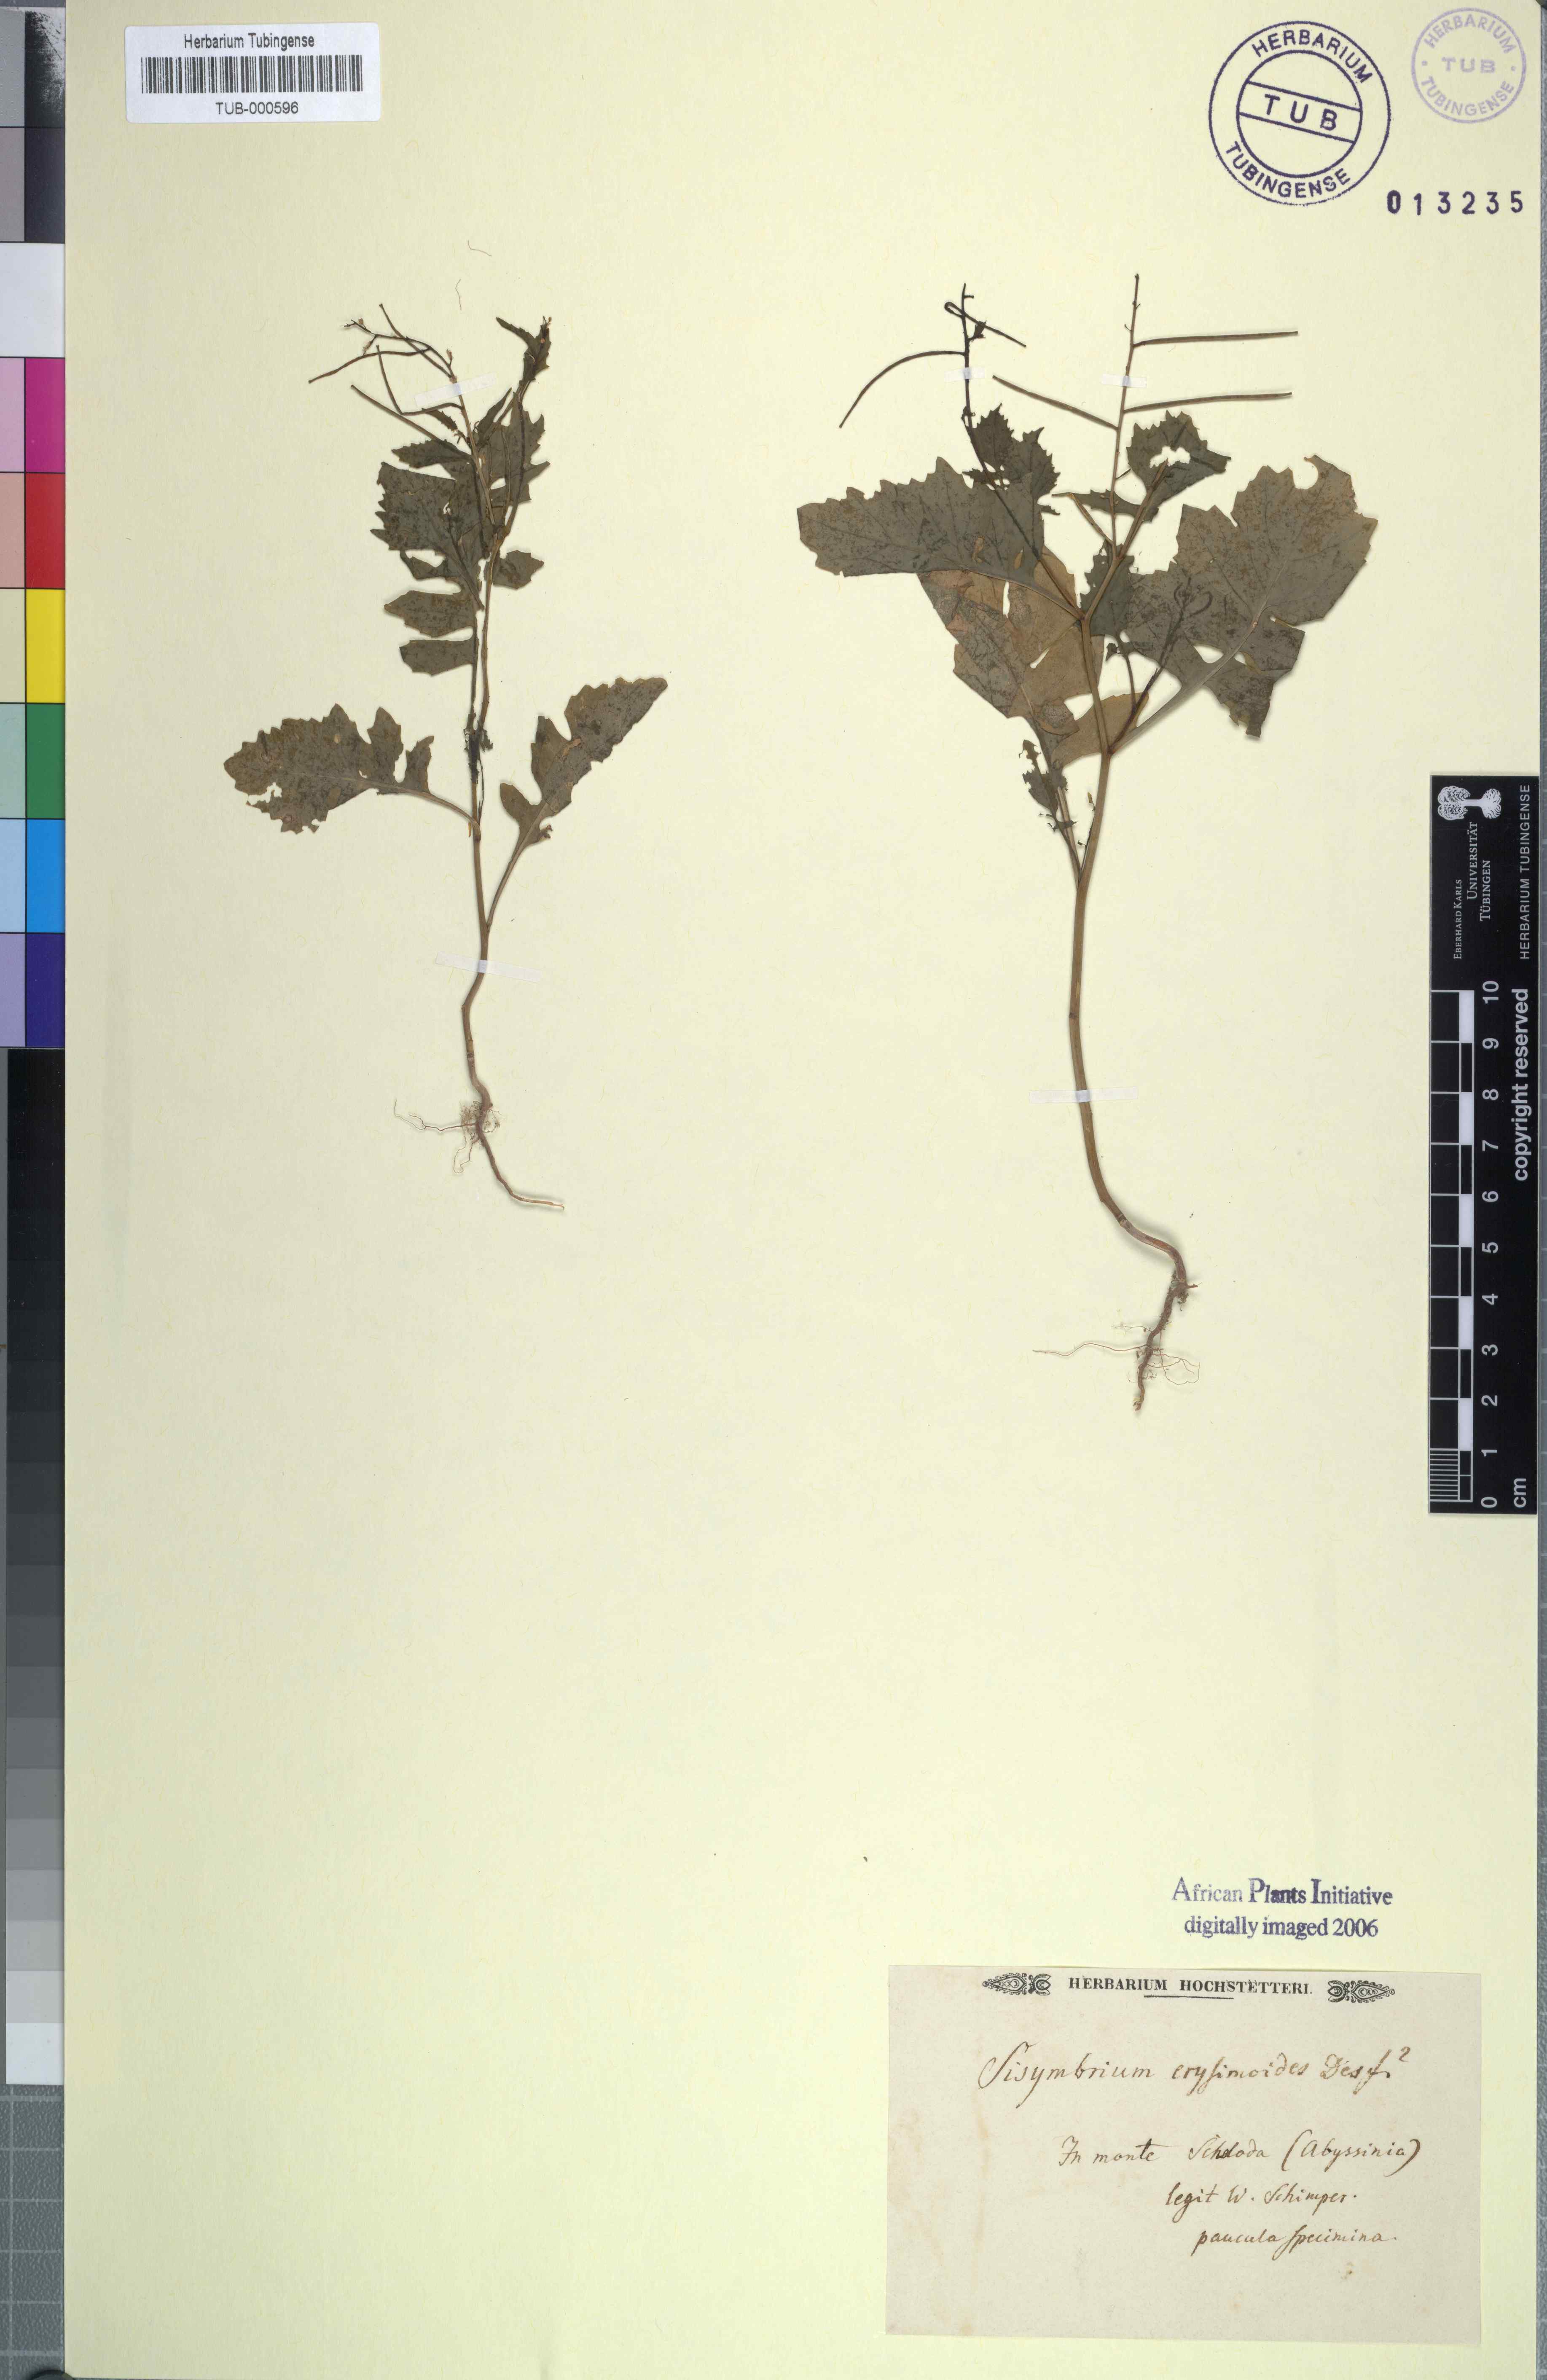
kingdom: Plantae
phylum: Tracheophyta
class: Magnoliopsida
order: Brassicales
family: Brassicaceae
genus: Sisymbrium
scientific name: Sisymbrium erysimoides
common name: French rocket
